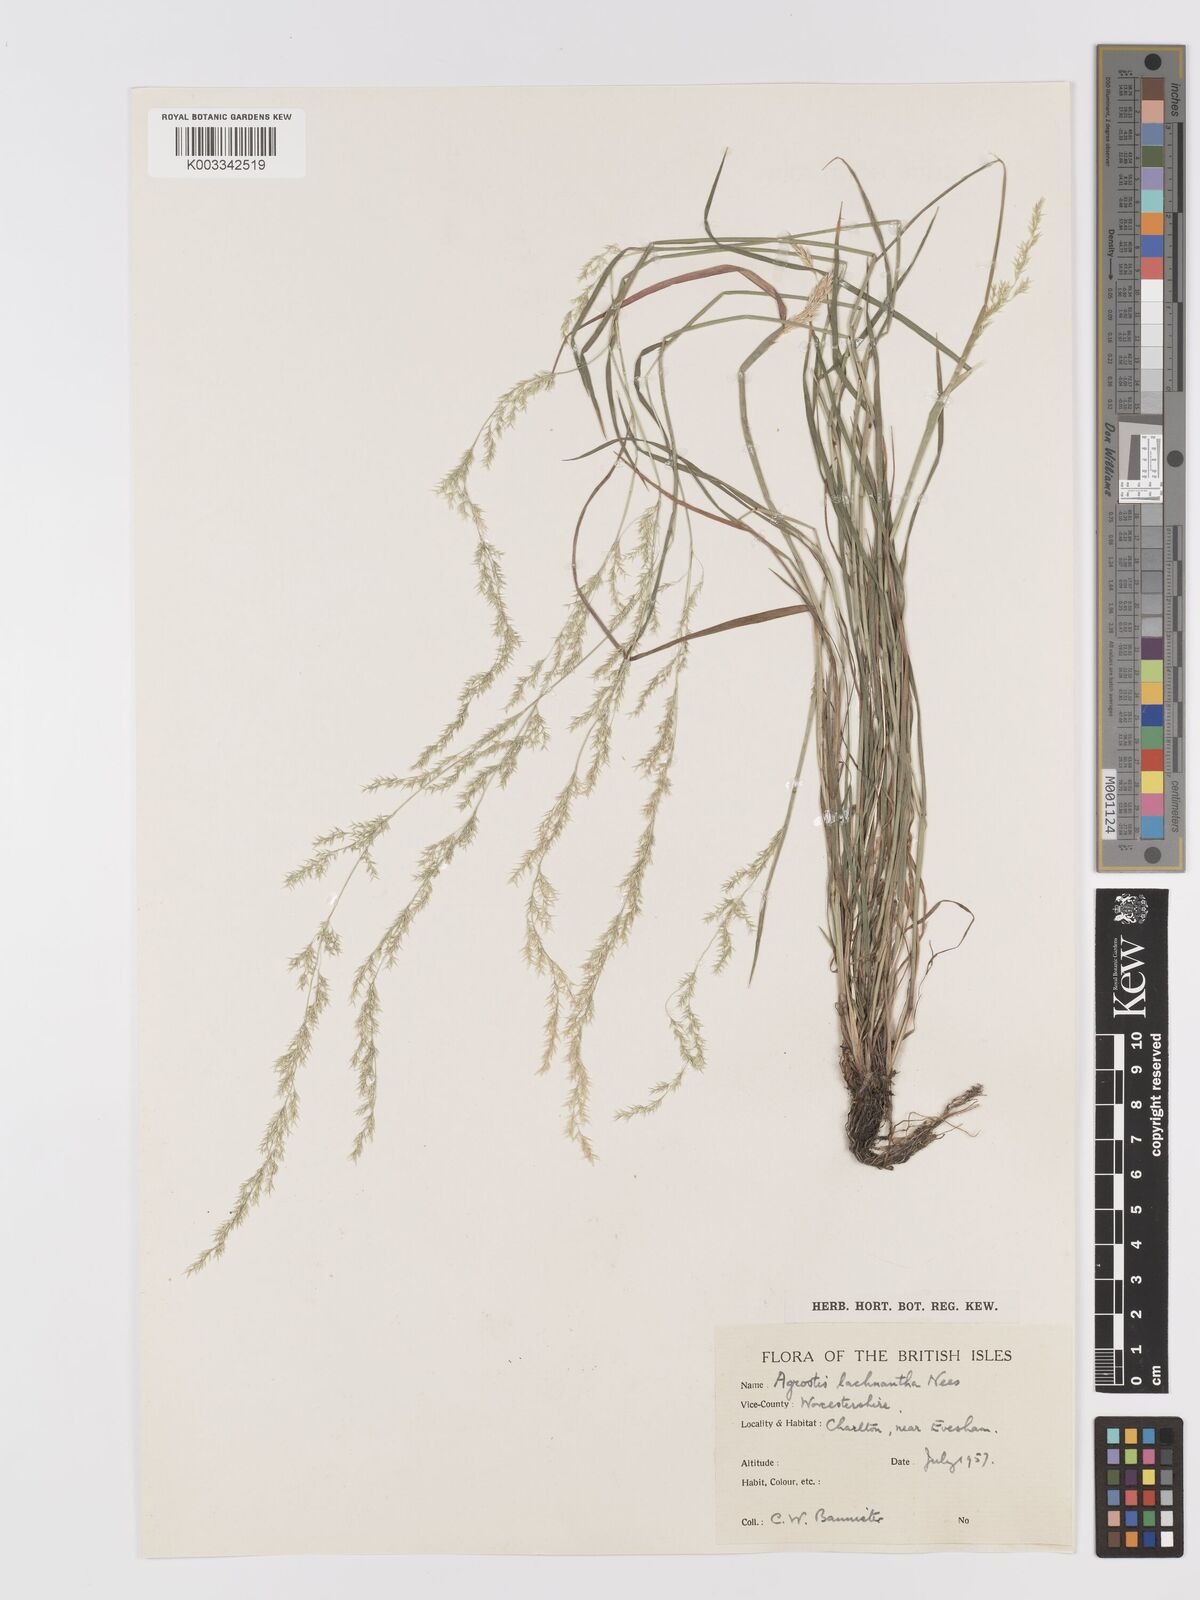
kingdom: Plantae
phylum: Tracheophyta
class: Liliopsida
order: Poales
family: Poaceae
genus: Lachnagrostis
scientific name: Lachnagrostis lachnantha
